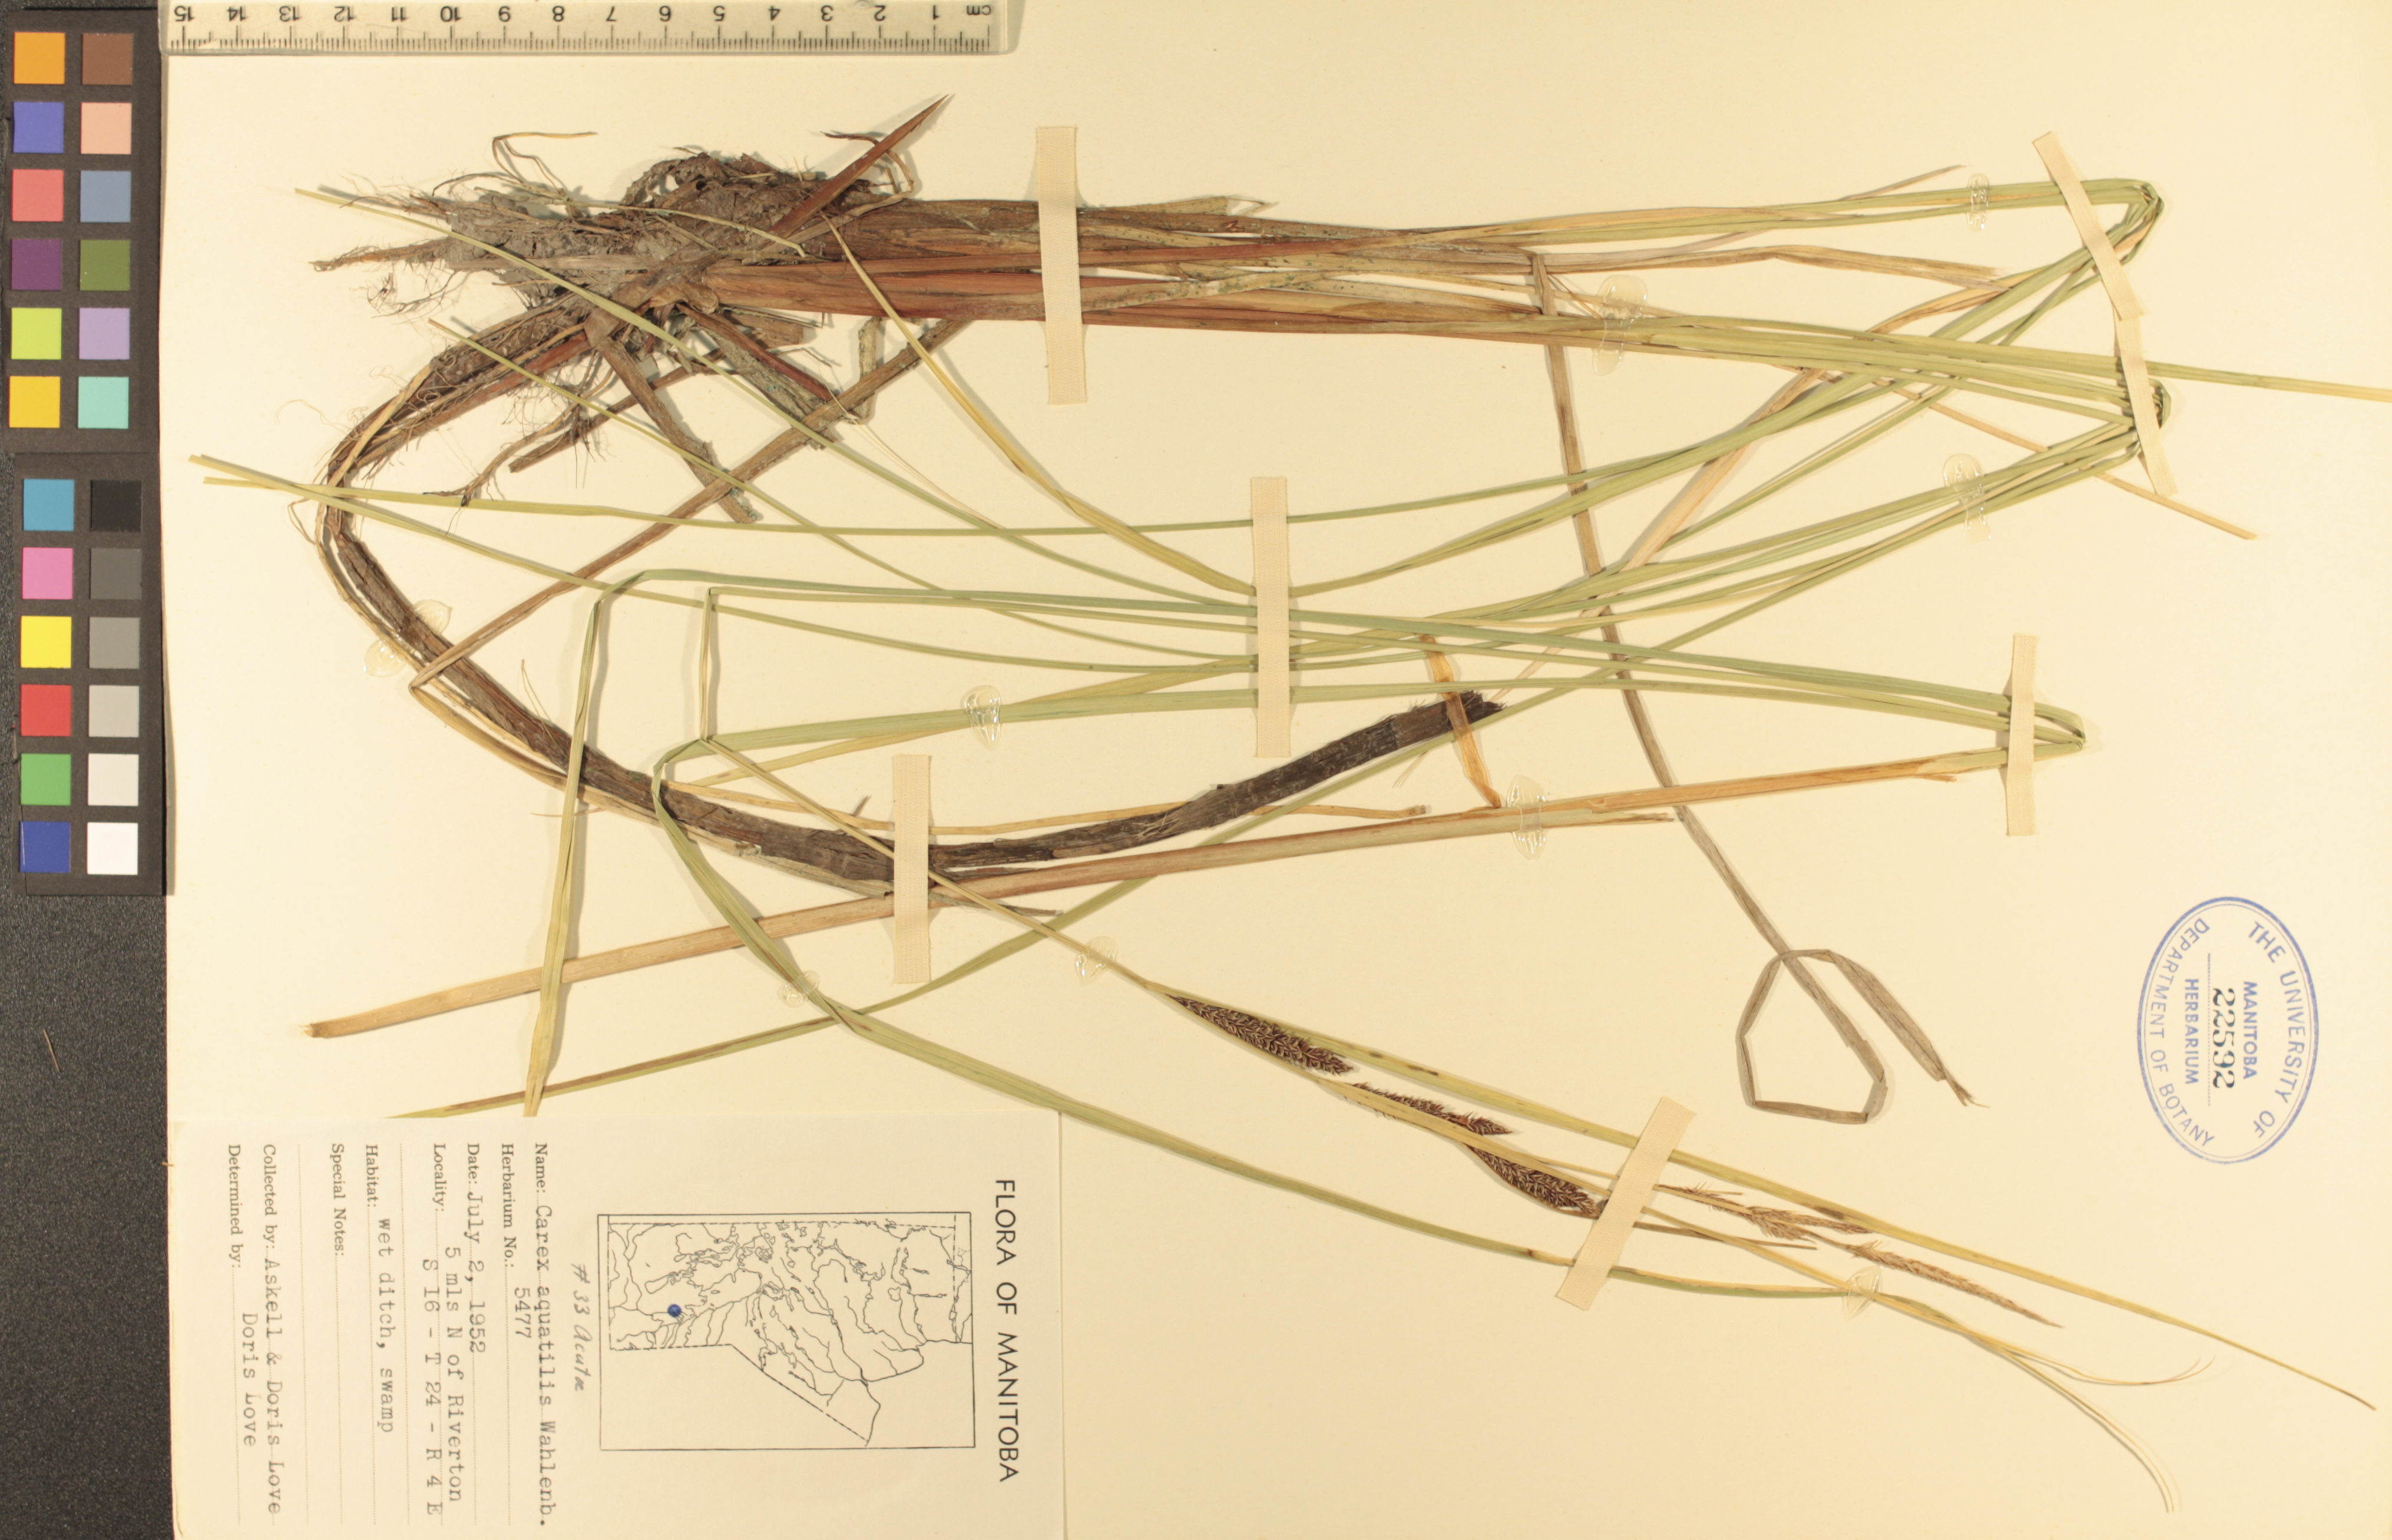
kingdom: Plantae
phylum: Tracheophyta
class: Liliopsida
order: Poales
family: Cyperaceae
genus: Carex
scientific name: Carex aquatilis
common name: Water sedge
